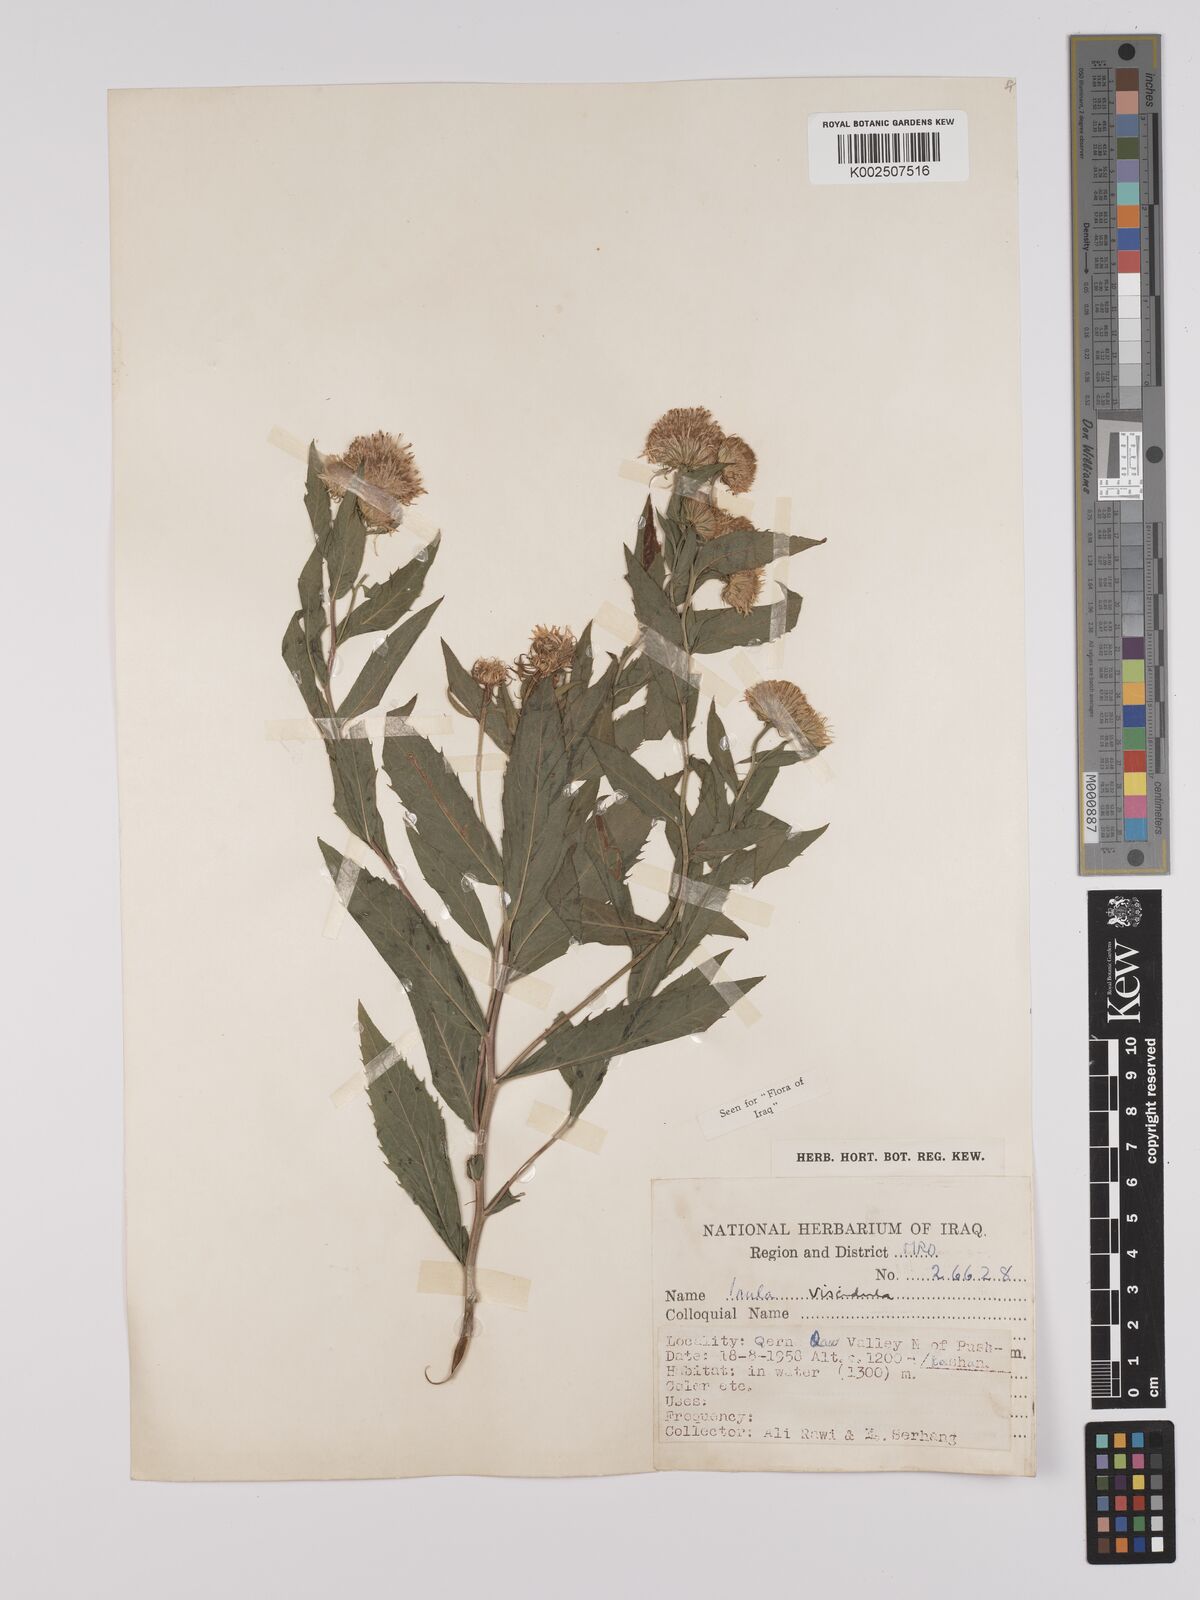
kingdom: Plantae
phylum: Tracheophyta
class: Magnoliopsida
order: Asterales
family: Asteraceae
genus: Inula
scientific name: Inula
